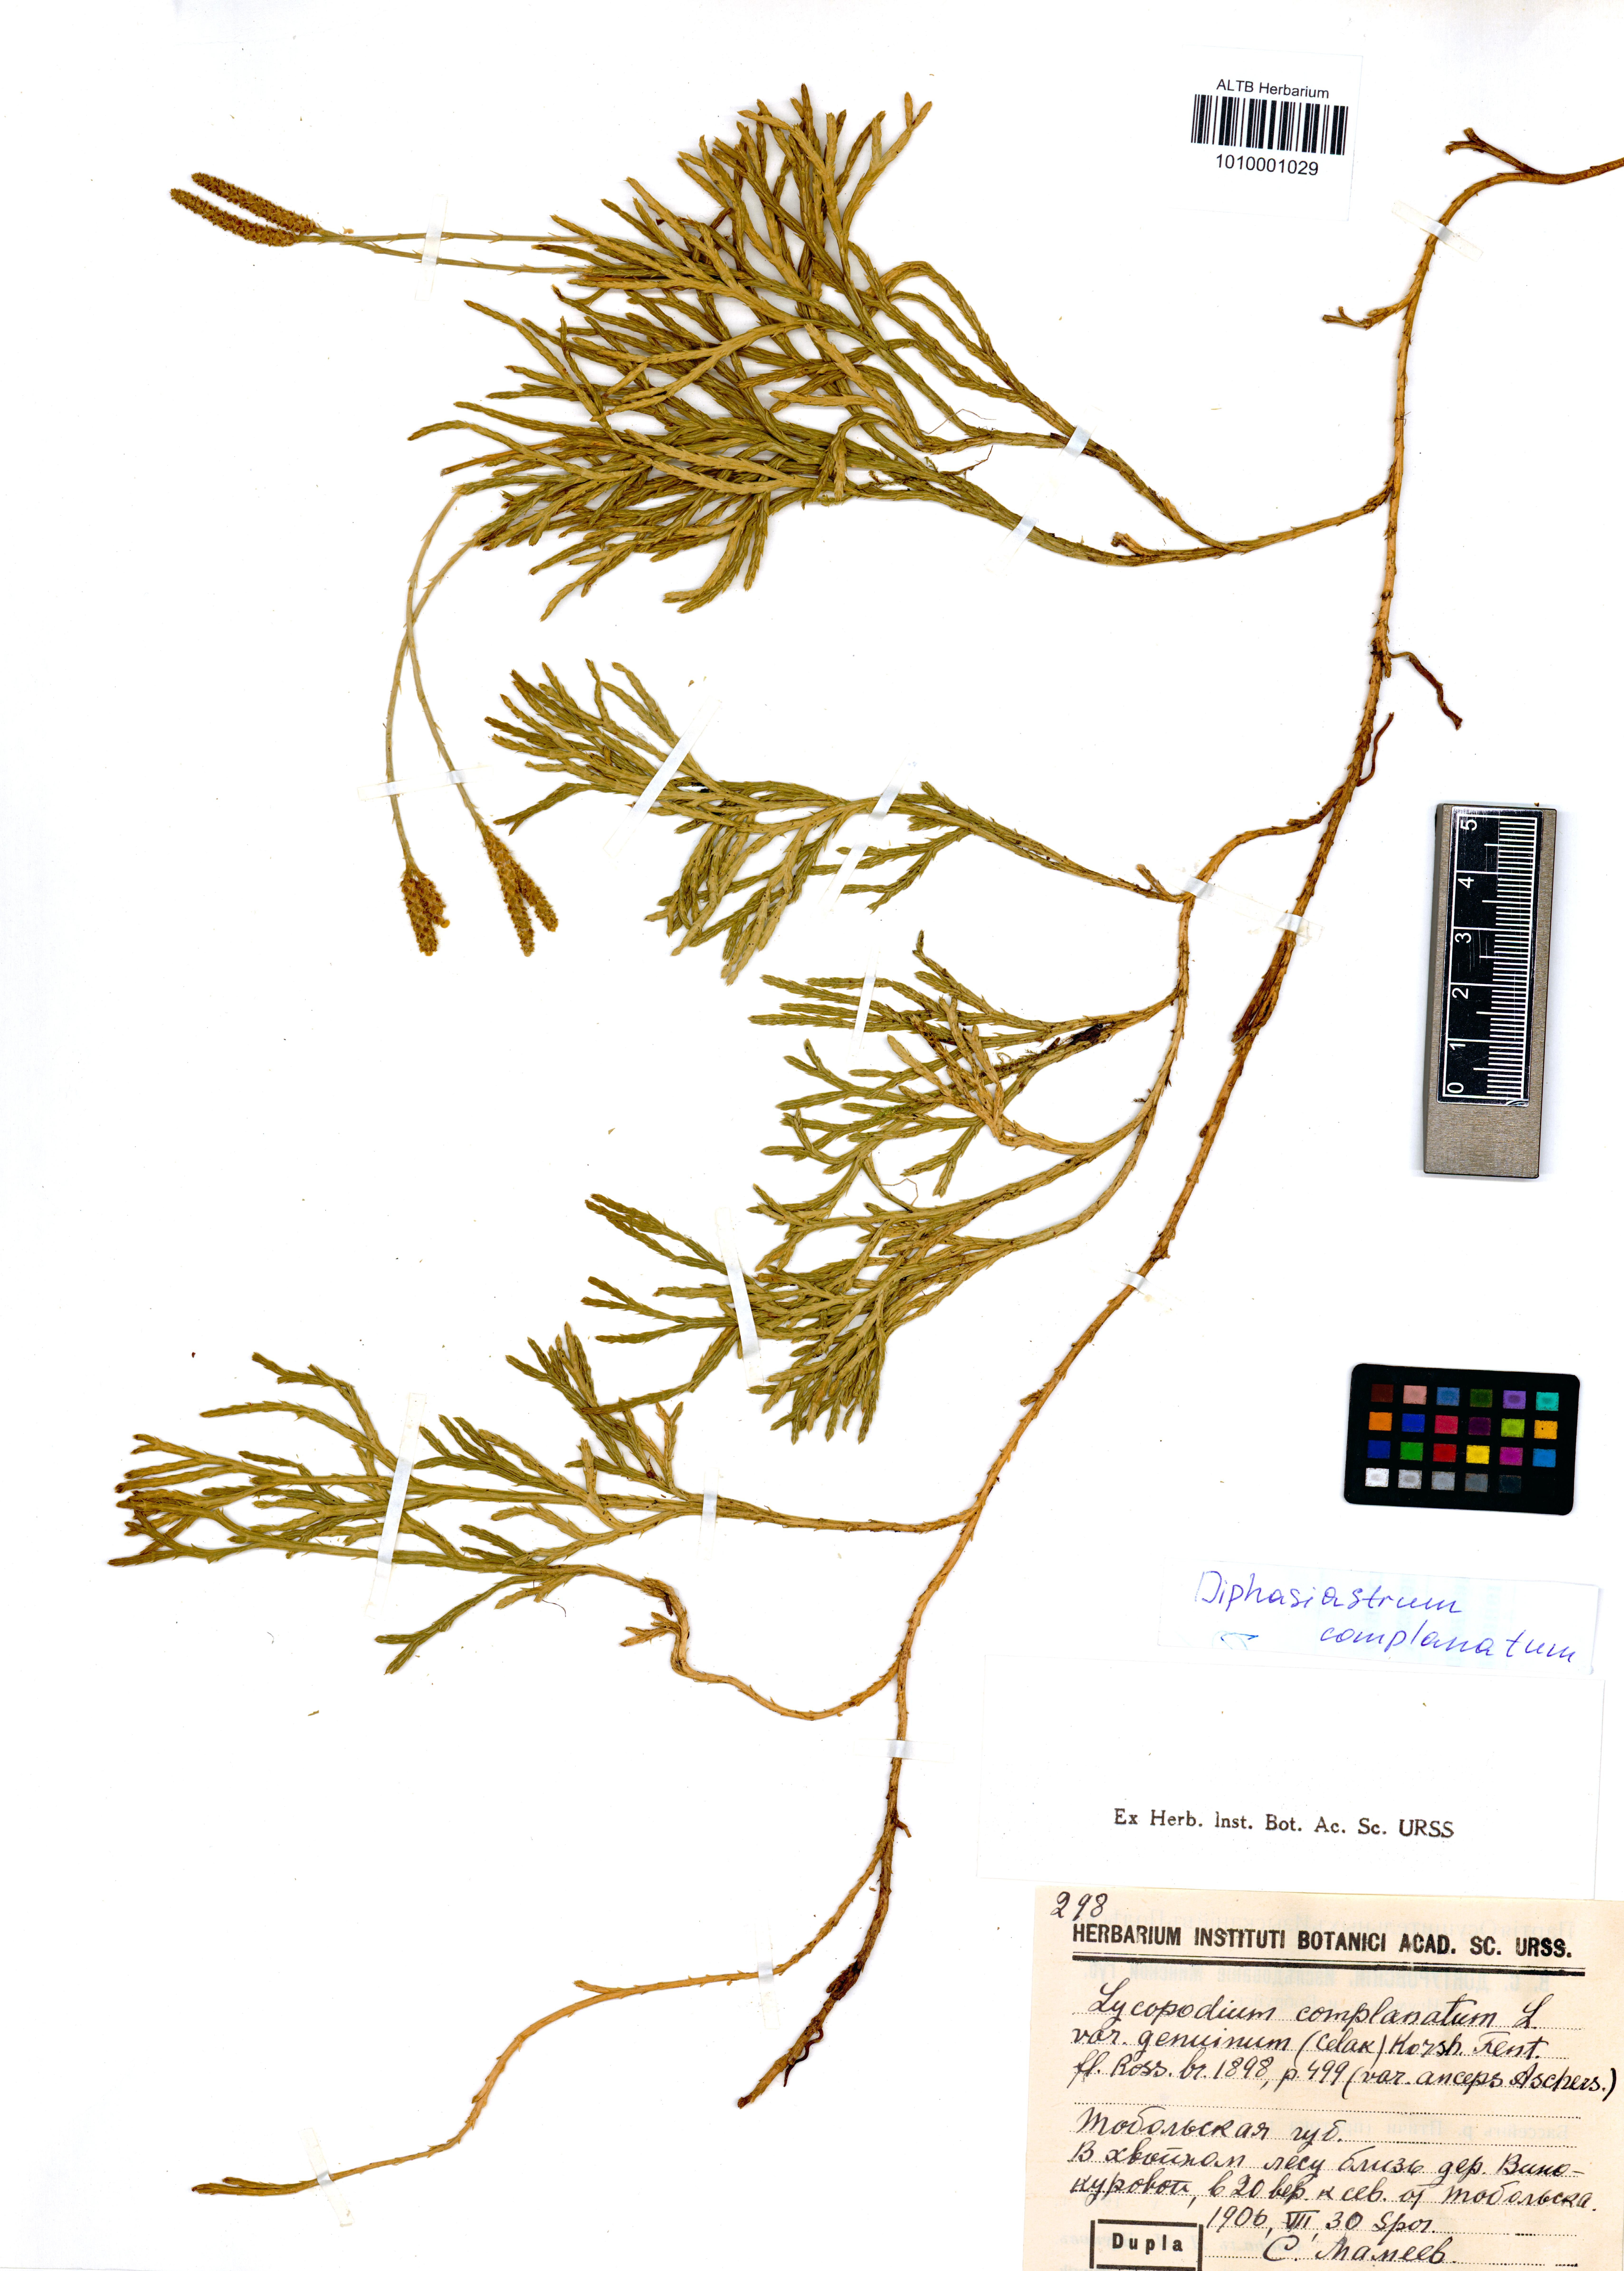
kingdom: Plantae
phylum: Tracheophyta
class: Lycopodiopsida
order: Lycopodiales
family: Lycopodiaceae
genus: Diphasiastrum
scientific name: Diphasiastrum complanatum
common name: Northern running-pine
